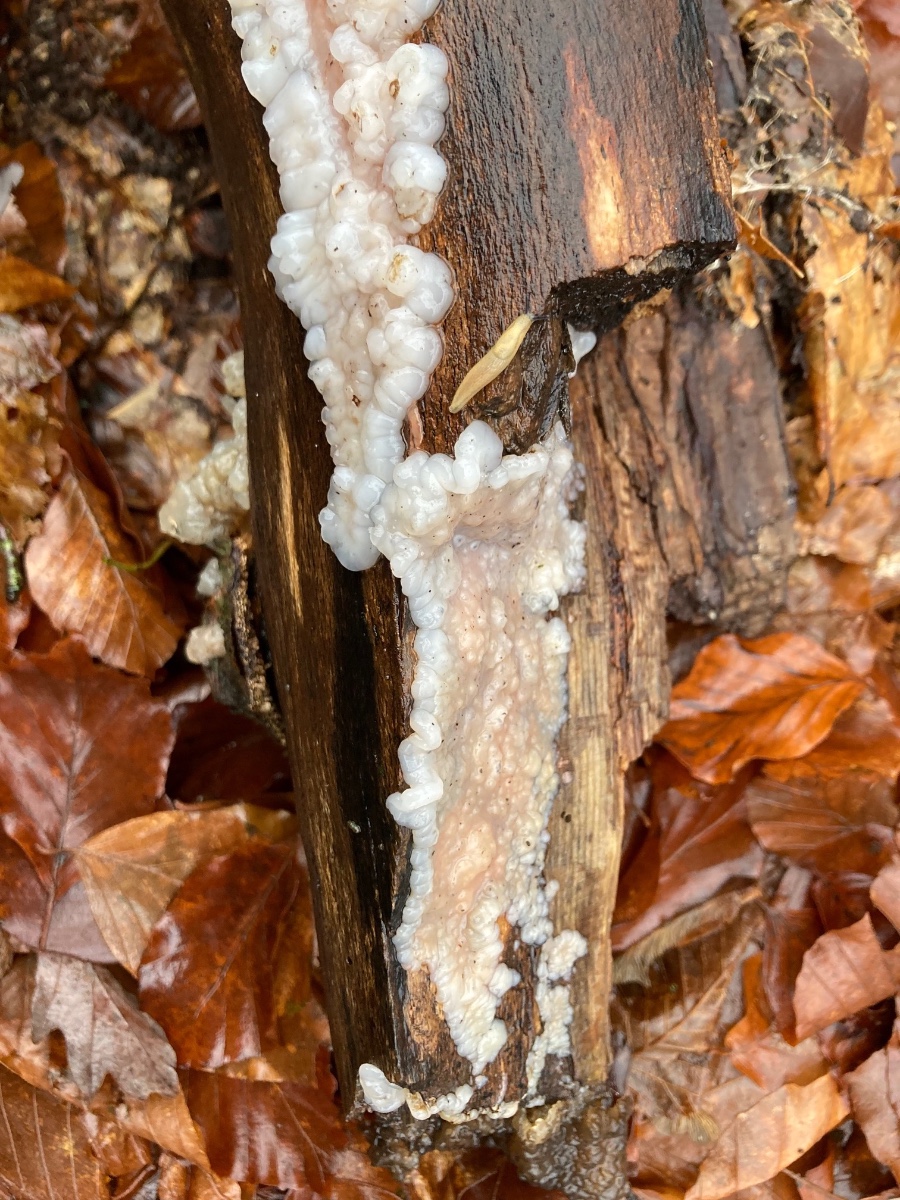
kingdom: Fungi
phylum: Basidiomycota
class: Agaricomycetes
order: Auriculariales
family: Auriculariaceae
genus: Exidia
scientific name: Exidia thuretiana
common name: hvidlig bævretop
